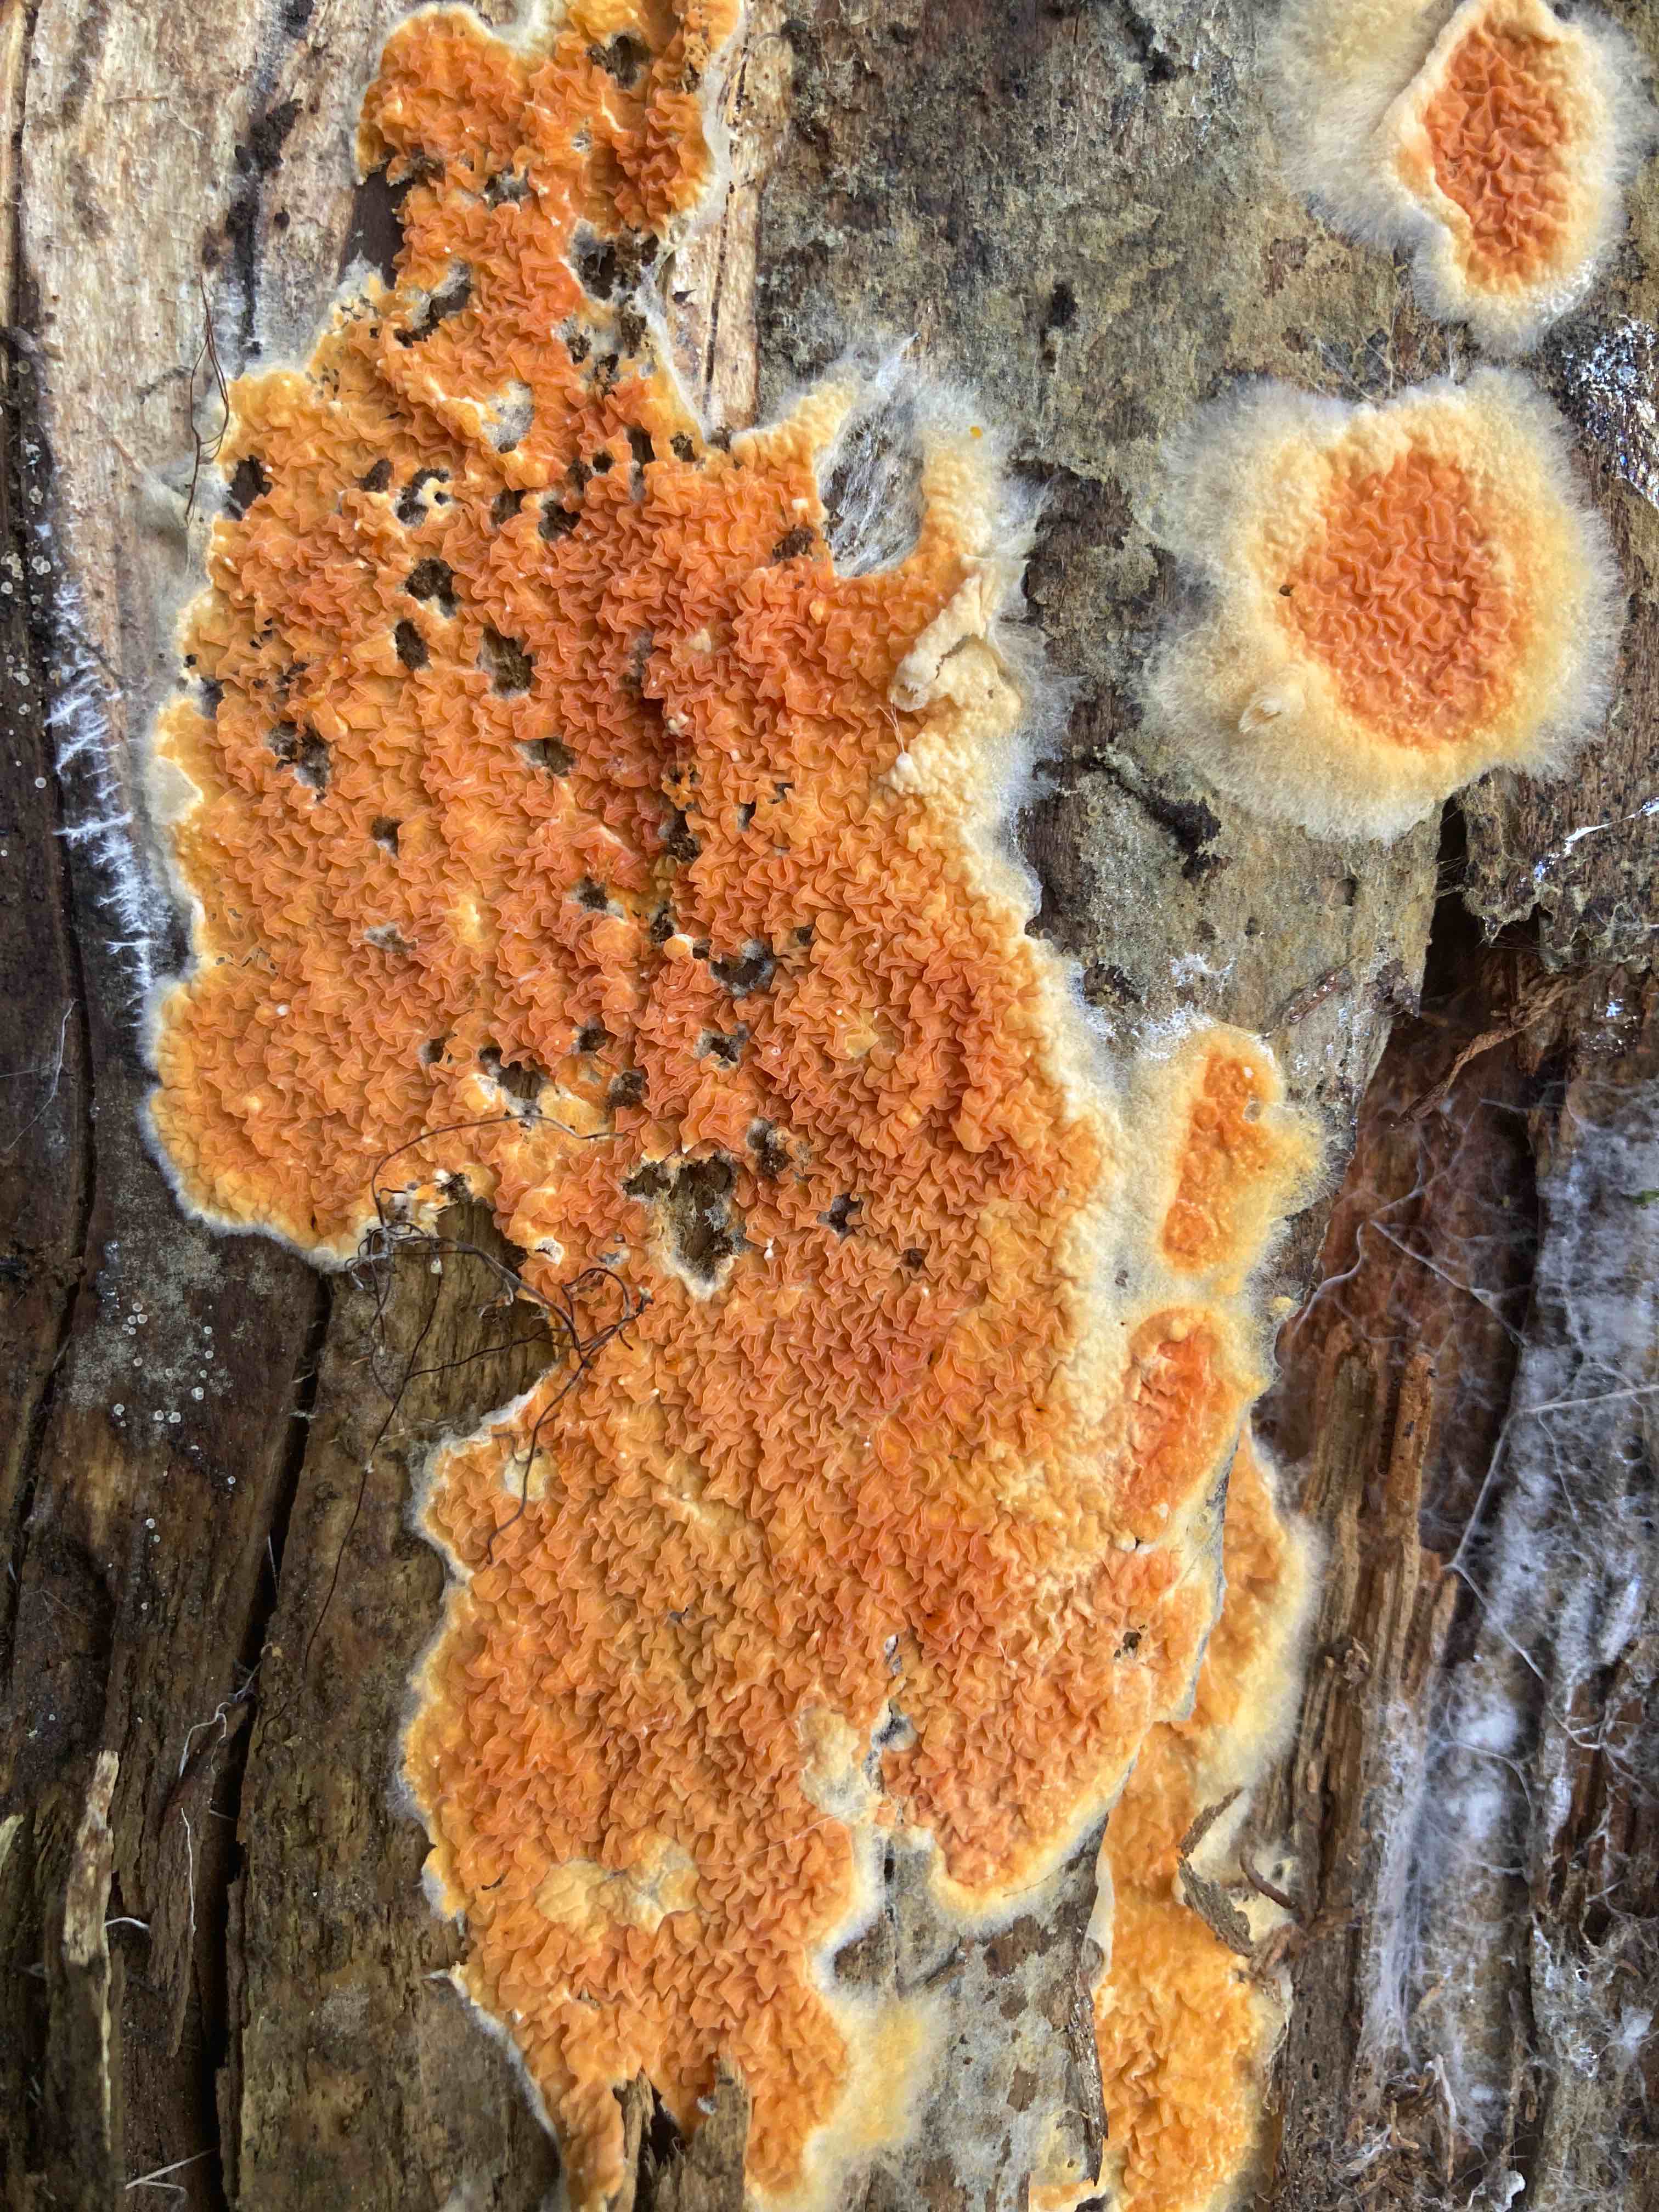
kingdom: Fungi
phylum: Basidiomycota
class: Agaricomycetes
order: Boletales
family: Hygrophoropsidaceae
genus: Leucogyrophana
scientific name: Leucogyrophana mollusca
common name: blød hussvamp
